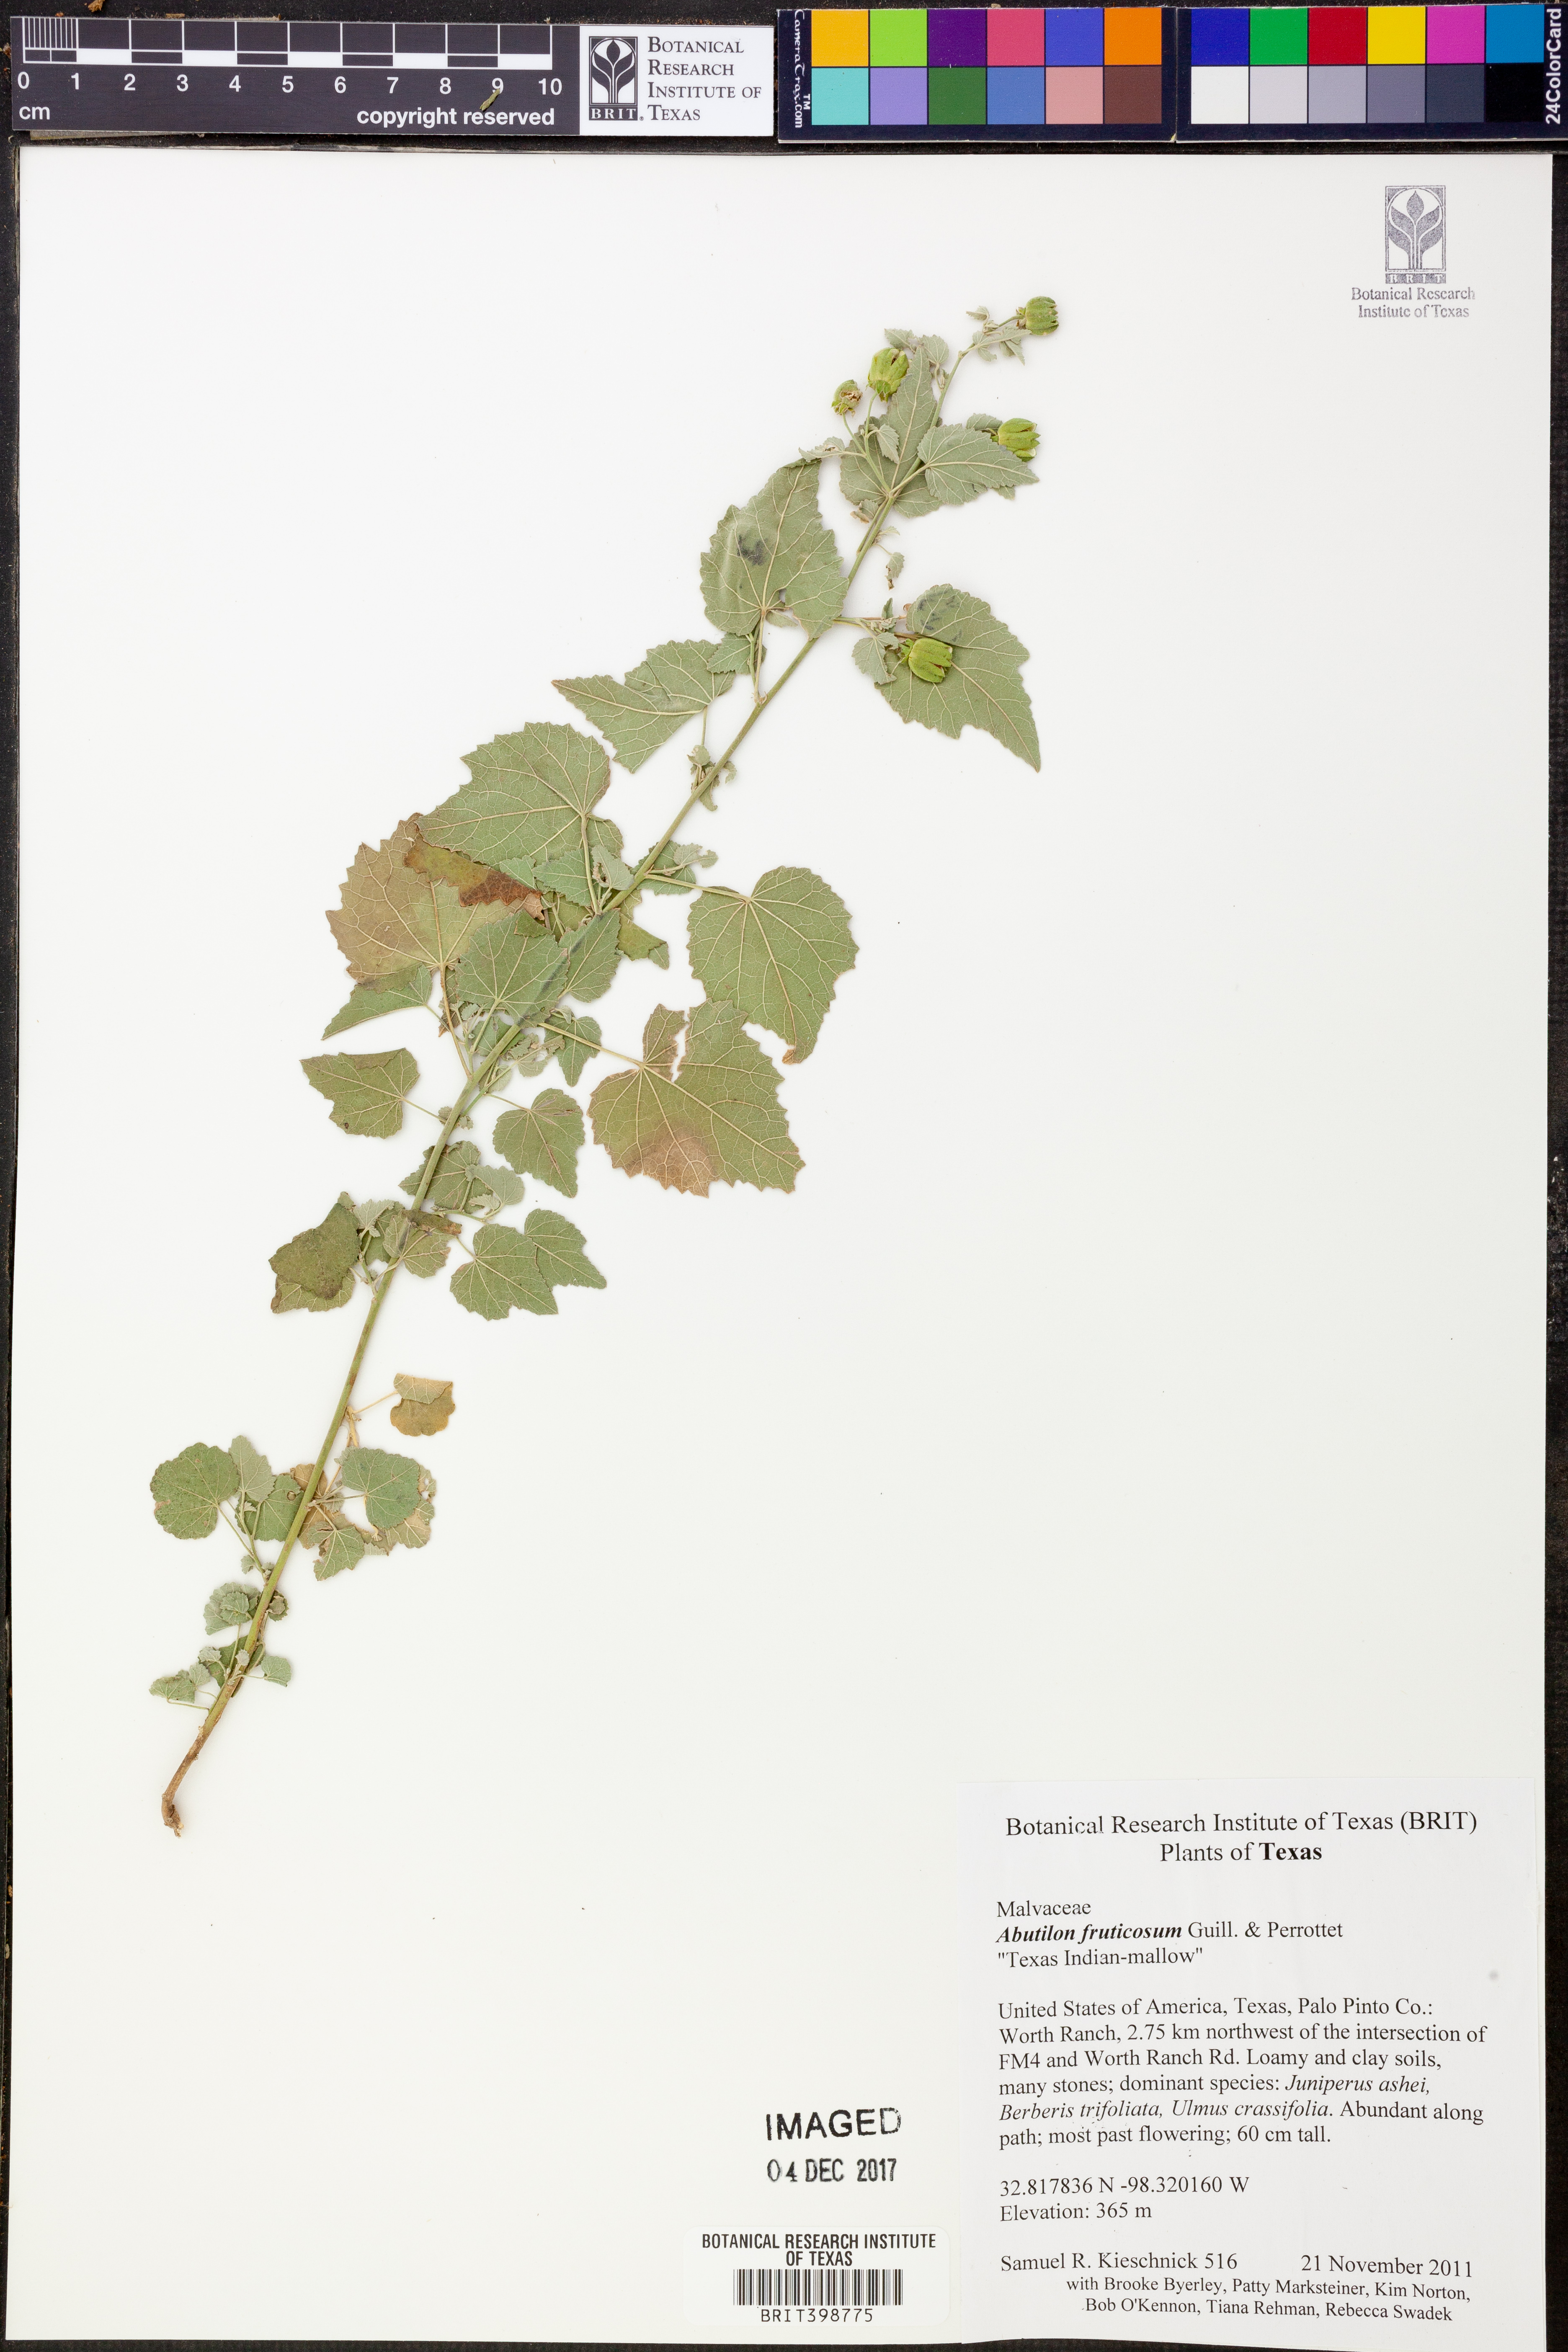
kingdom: Plantae
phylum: Tracheophyta
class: Magnoliopsida
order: Malvales
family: Malvaceae
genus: Abutilon
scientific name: Abutilon fruticosum
